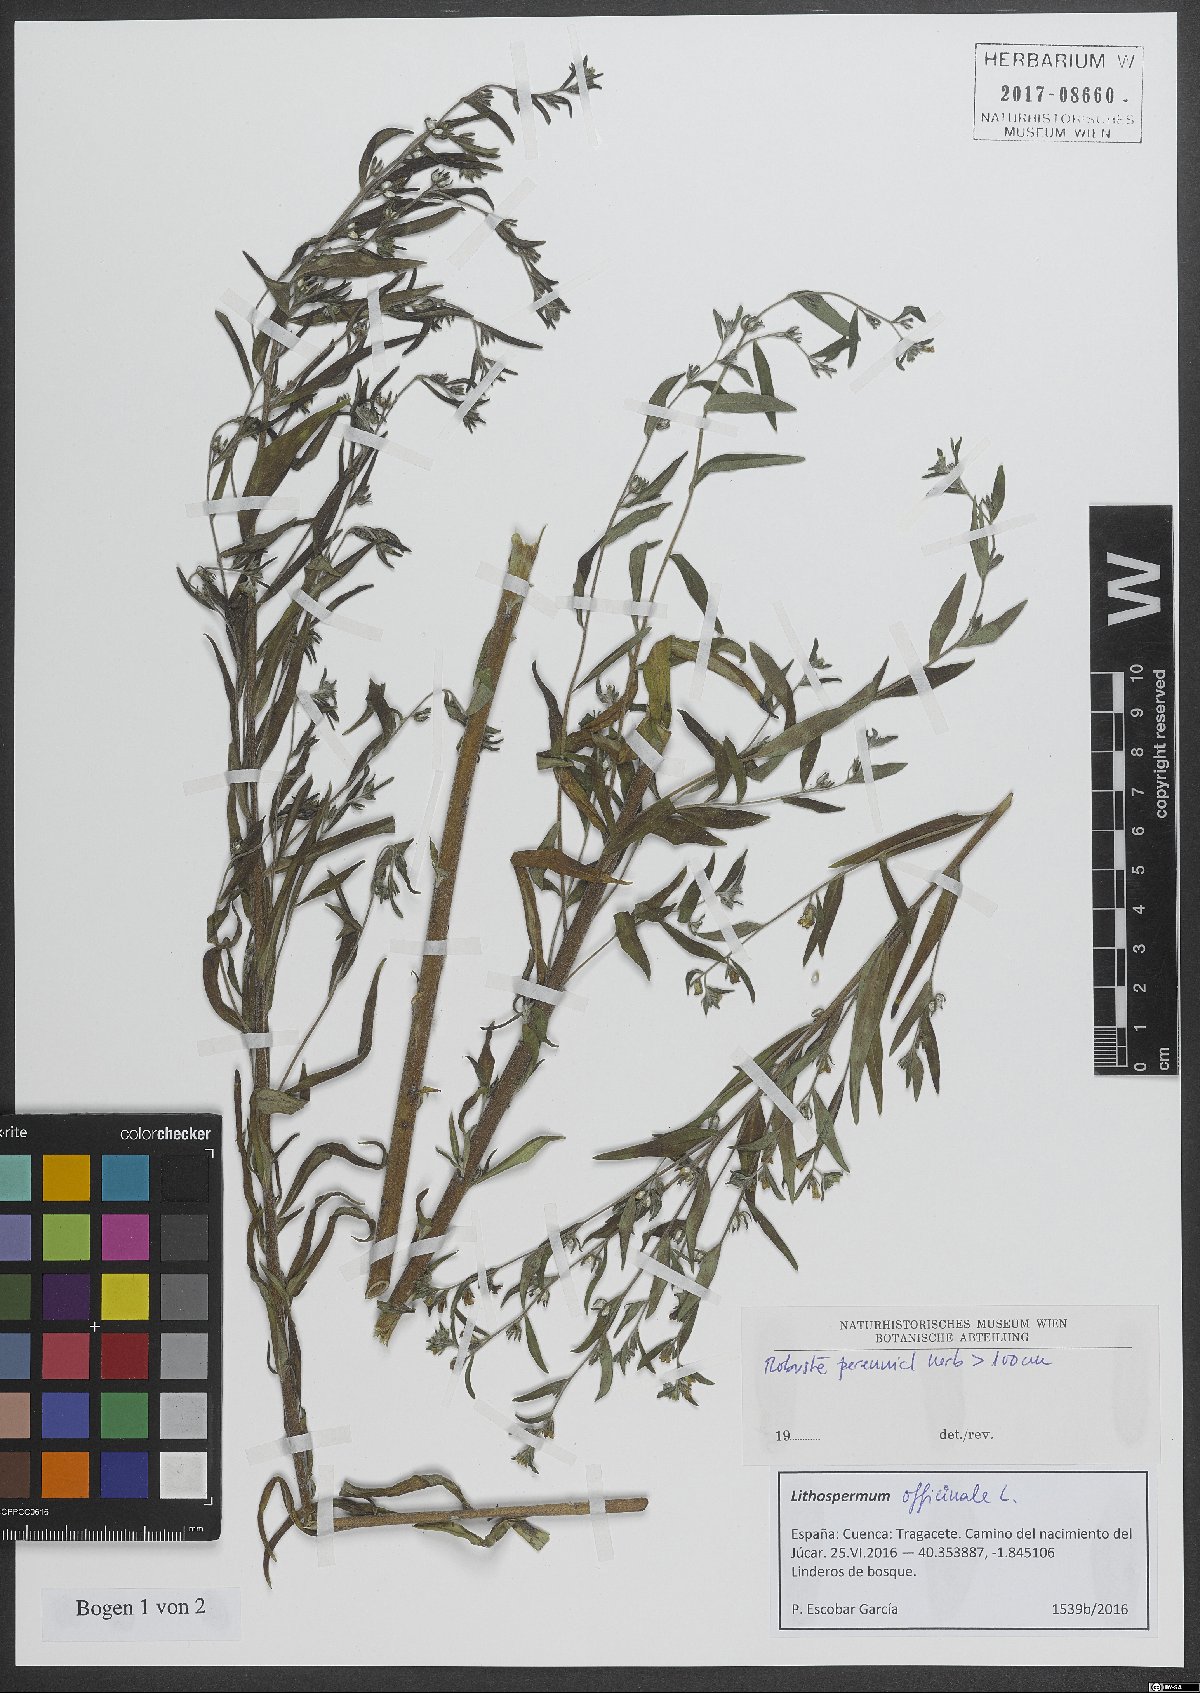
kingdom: Plantae
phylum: Tracheophyta
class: Magnoliopsida
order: Boraginales
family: Boraginaceae
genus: Lithospermum
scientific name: Lithospermum officinale
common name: Common gromwell
